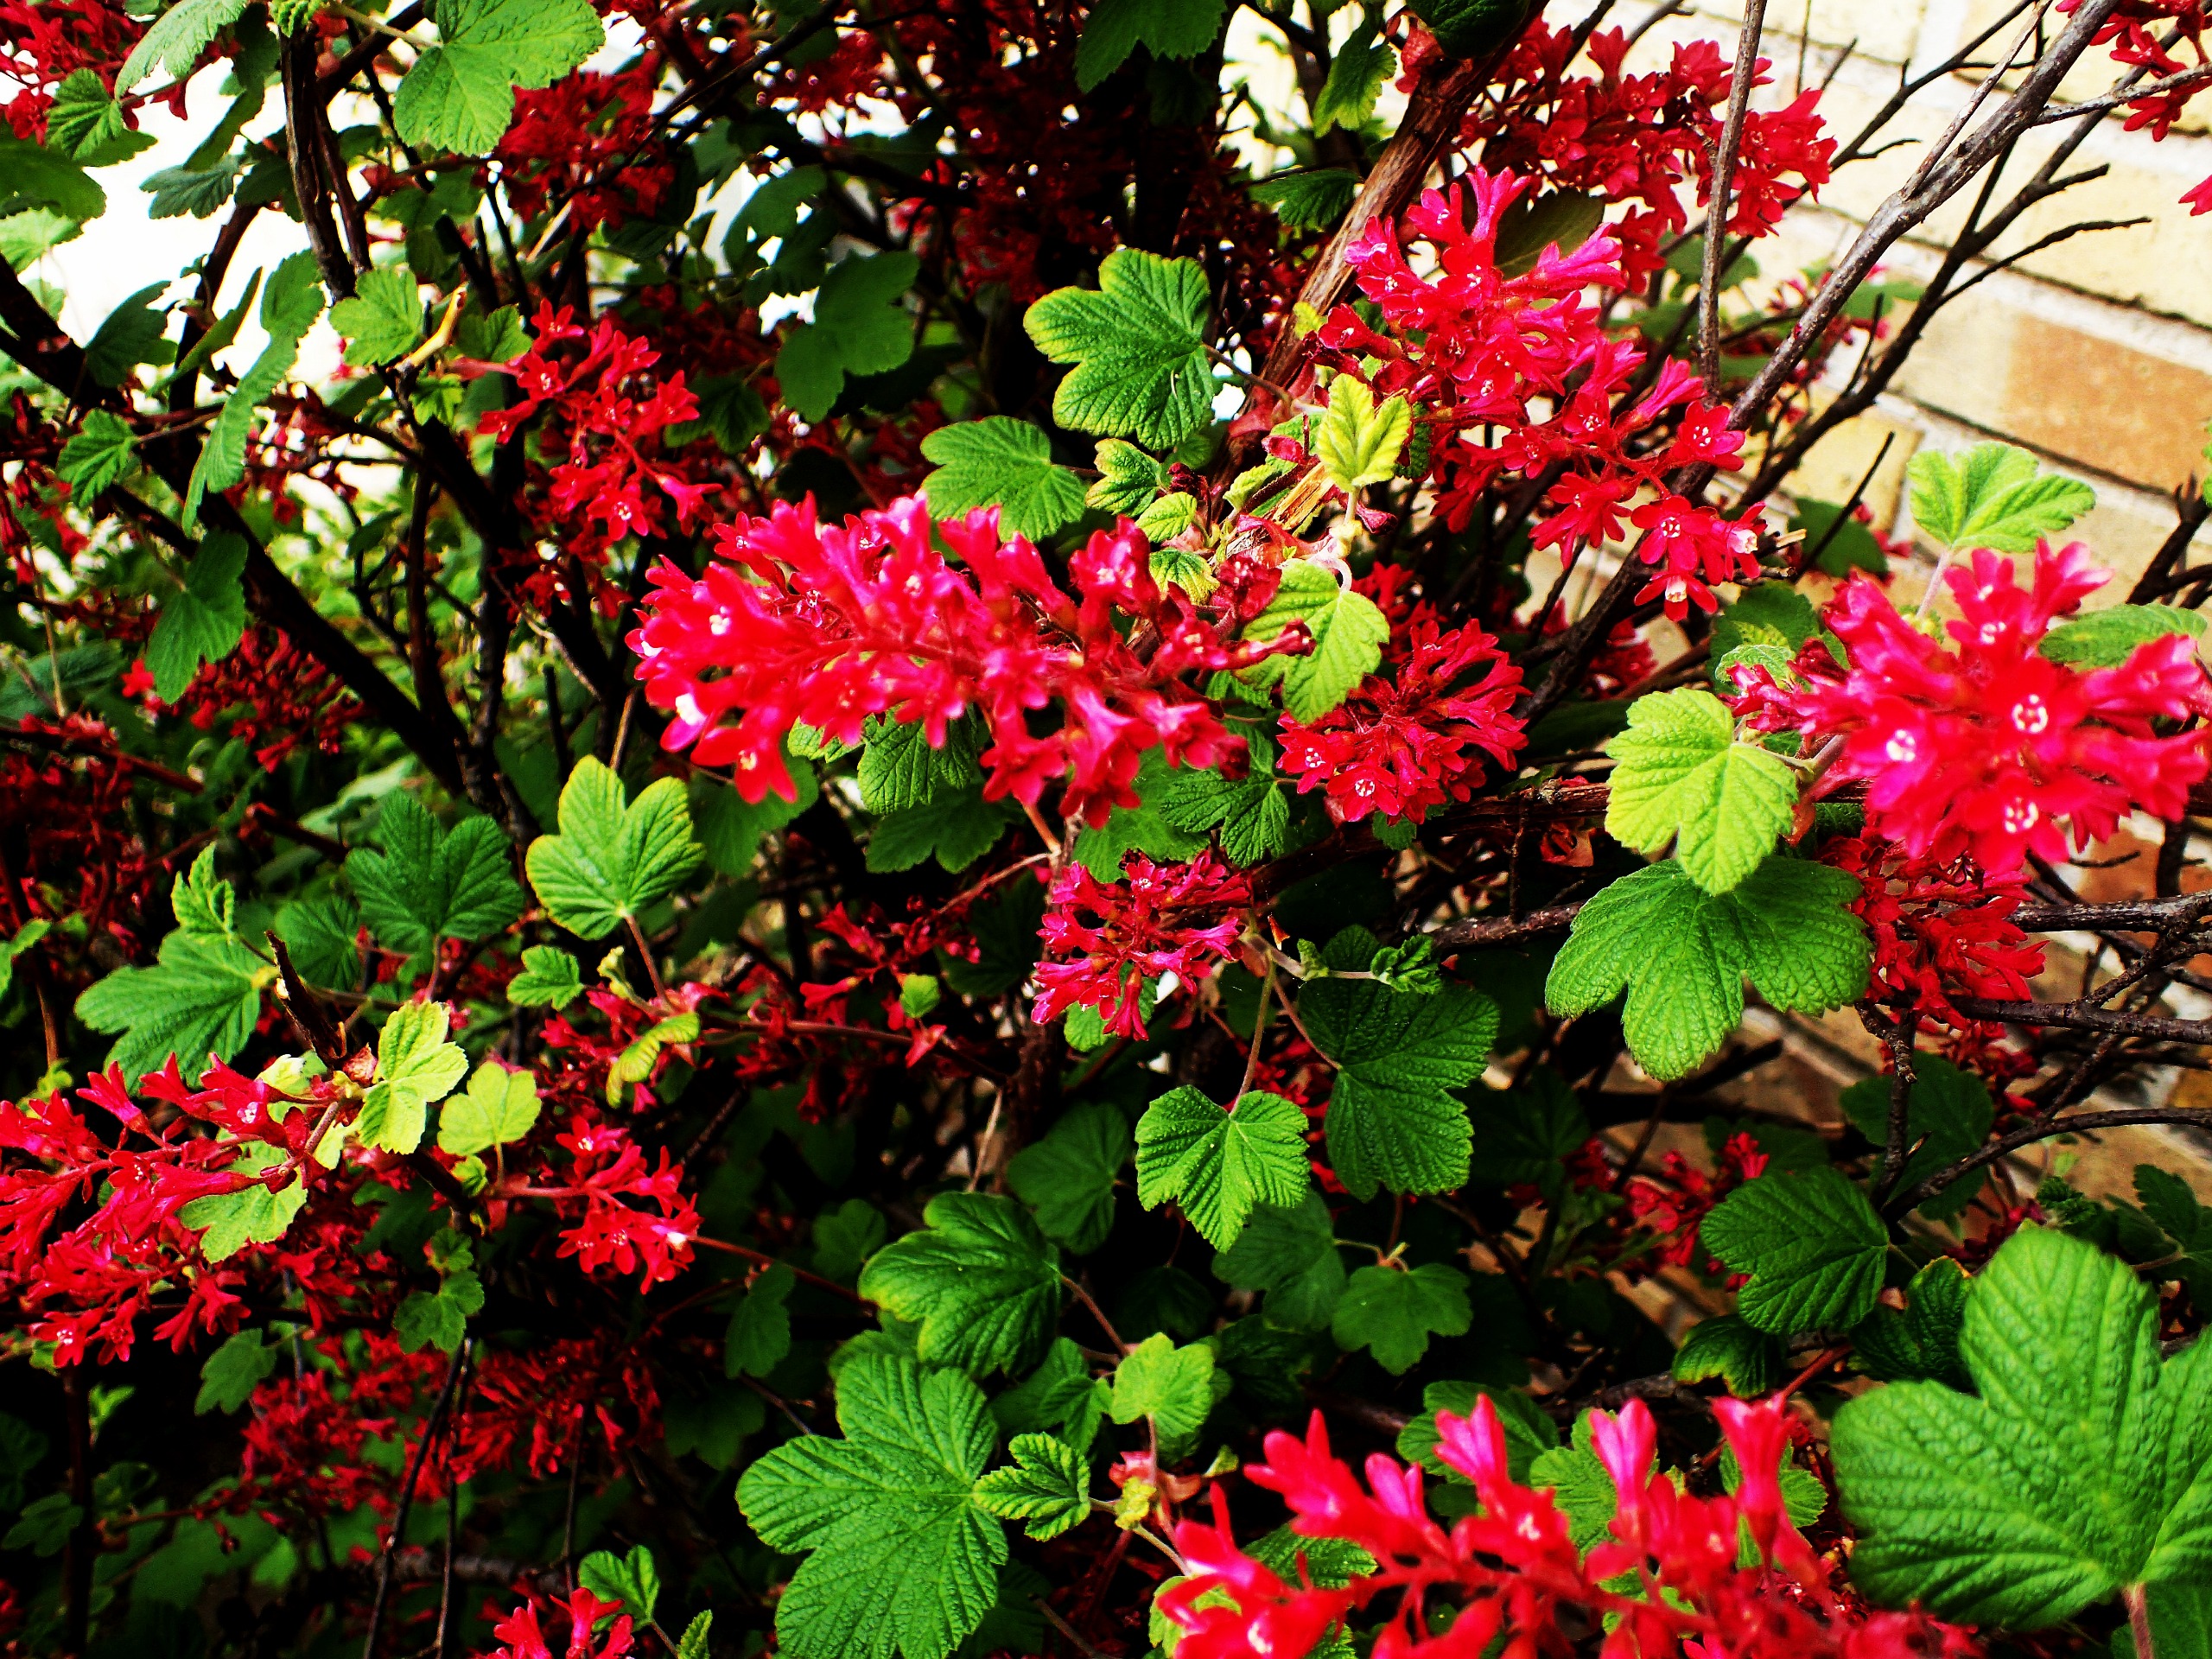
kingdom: Plantae
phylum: Tracheophyta
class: Magnoliopsida
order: Saxifragales
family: Grossulariaceae
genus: Ribes
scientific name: Ribes sanguineum
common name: Blod-ribs
